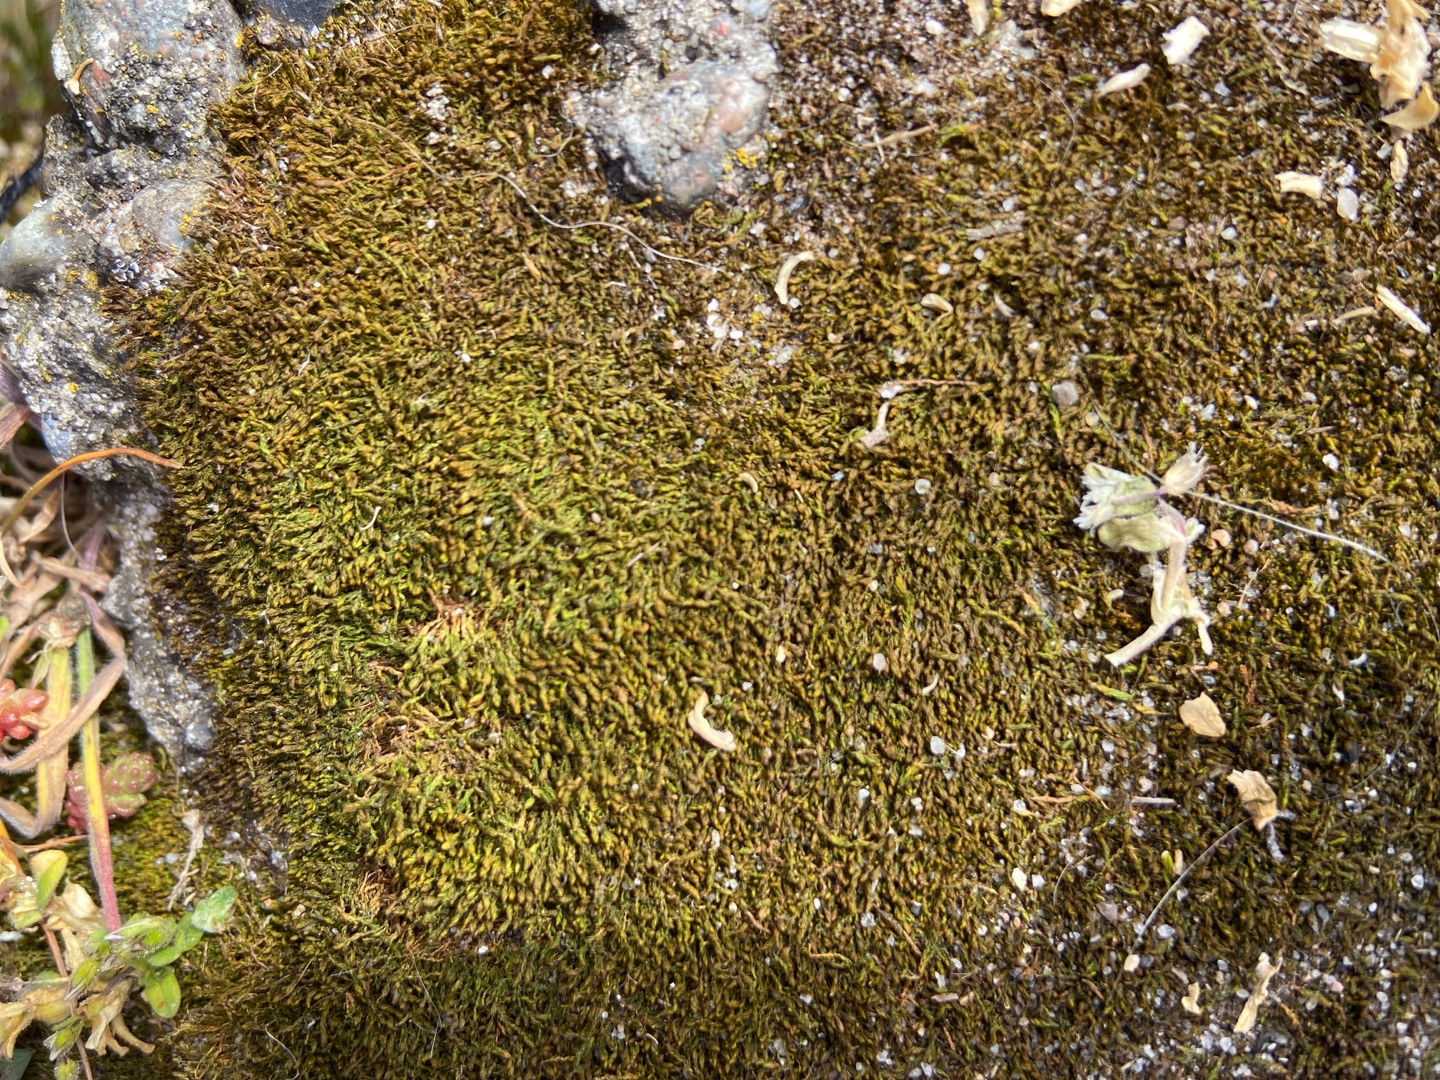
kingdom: Plantae
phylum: Bryophyta
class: Bryopsida
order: Pottiales
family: Pottiaceae
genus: Pseudocrossidium
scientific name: Pseudocrossidium hornschuchianum
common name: Spids rullerand
